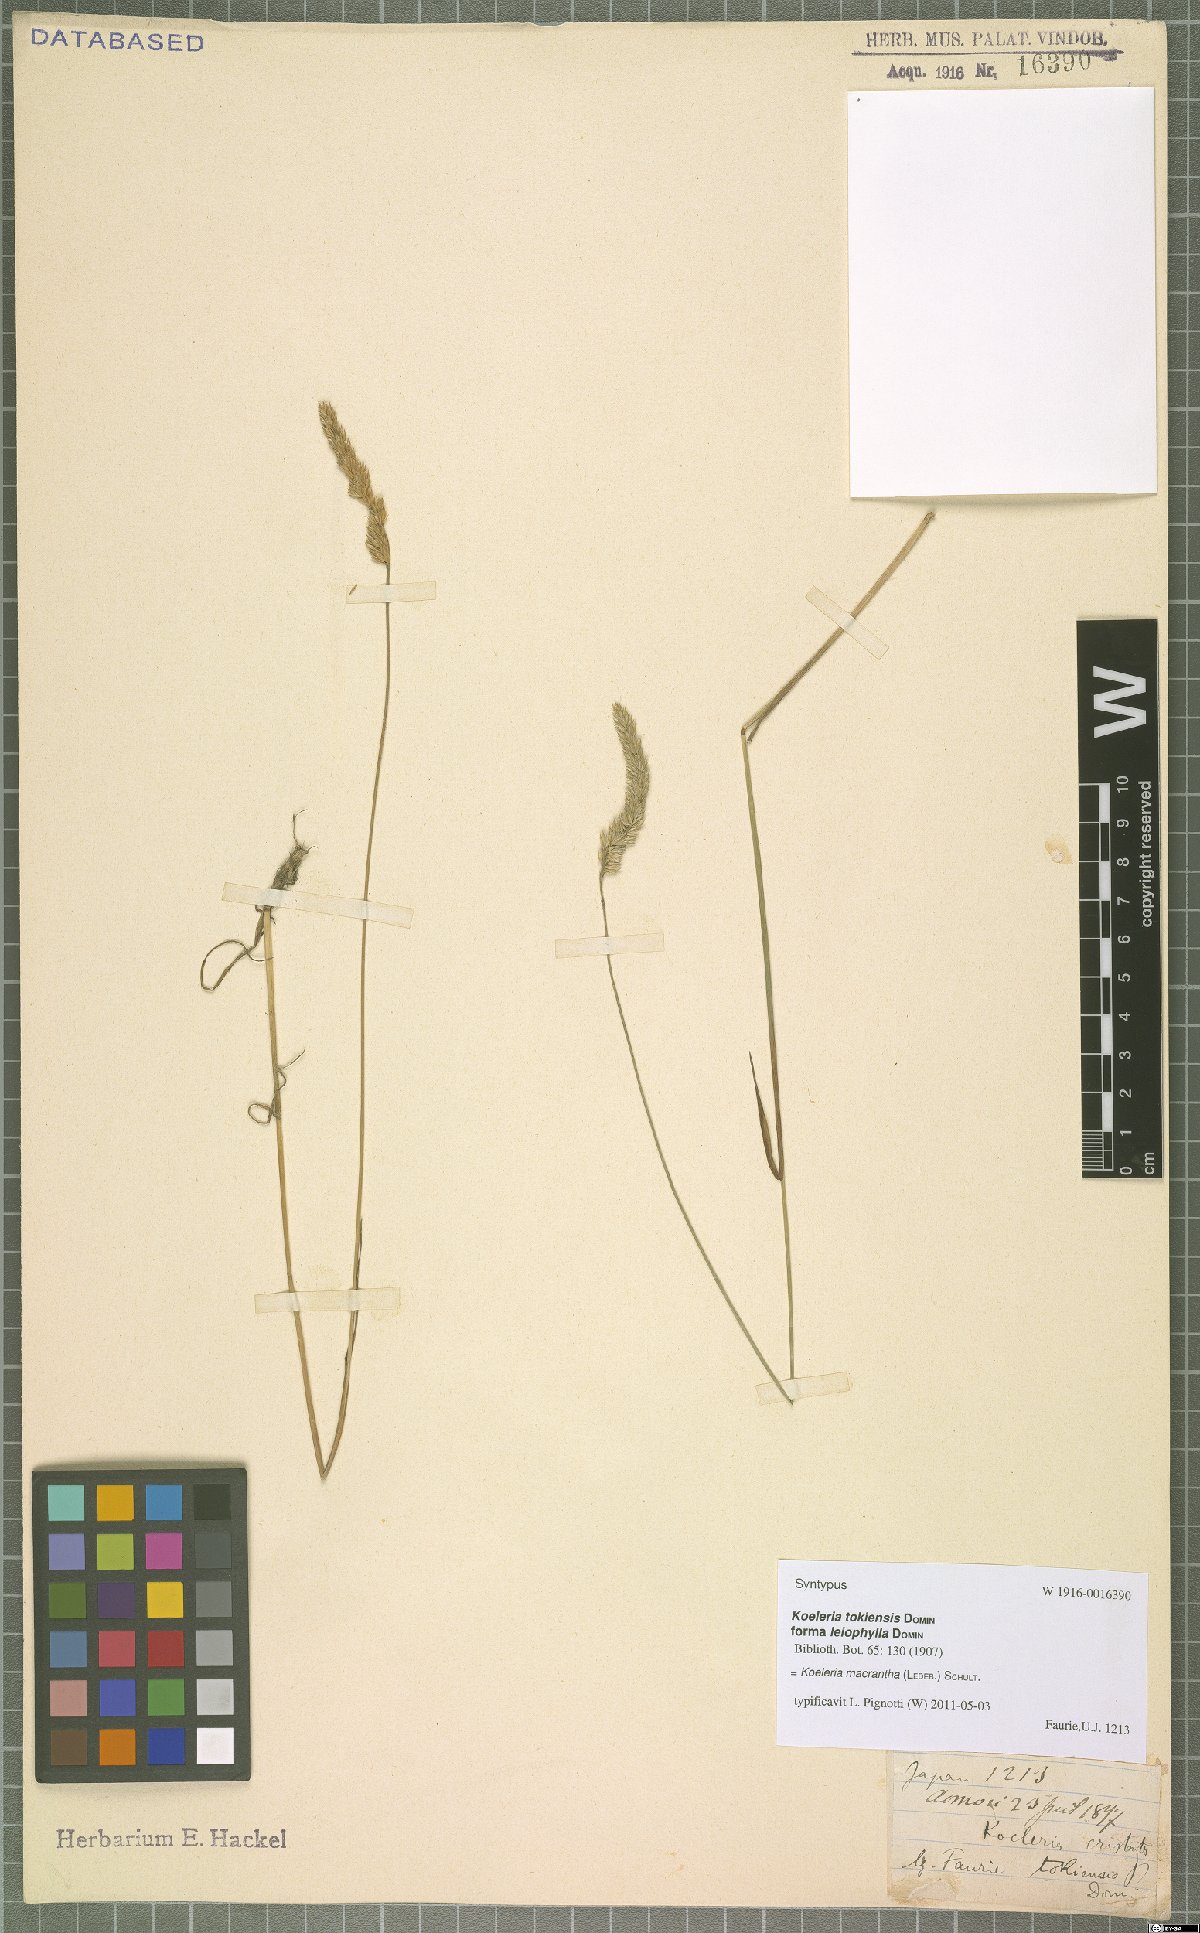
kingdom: Plantae
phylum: Tracheophyta
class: Liliopsida
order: Poales
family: Poaceae
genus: Koeleria
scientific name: Koeleria macrantha
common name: Crested hair-grass
